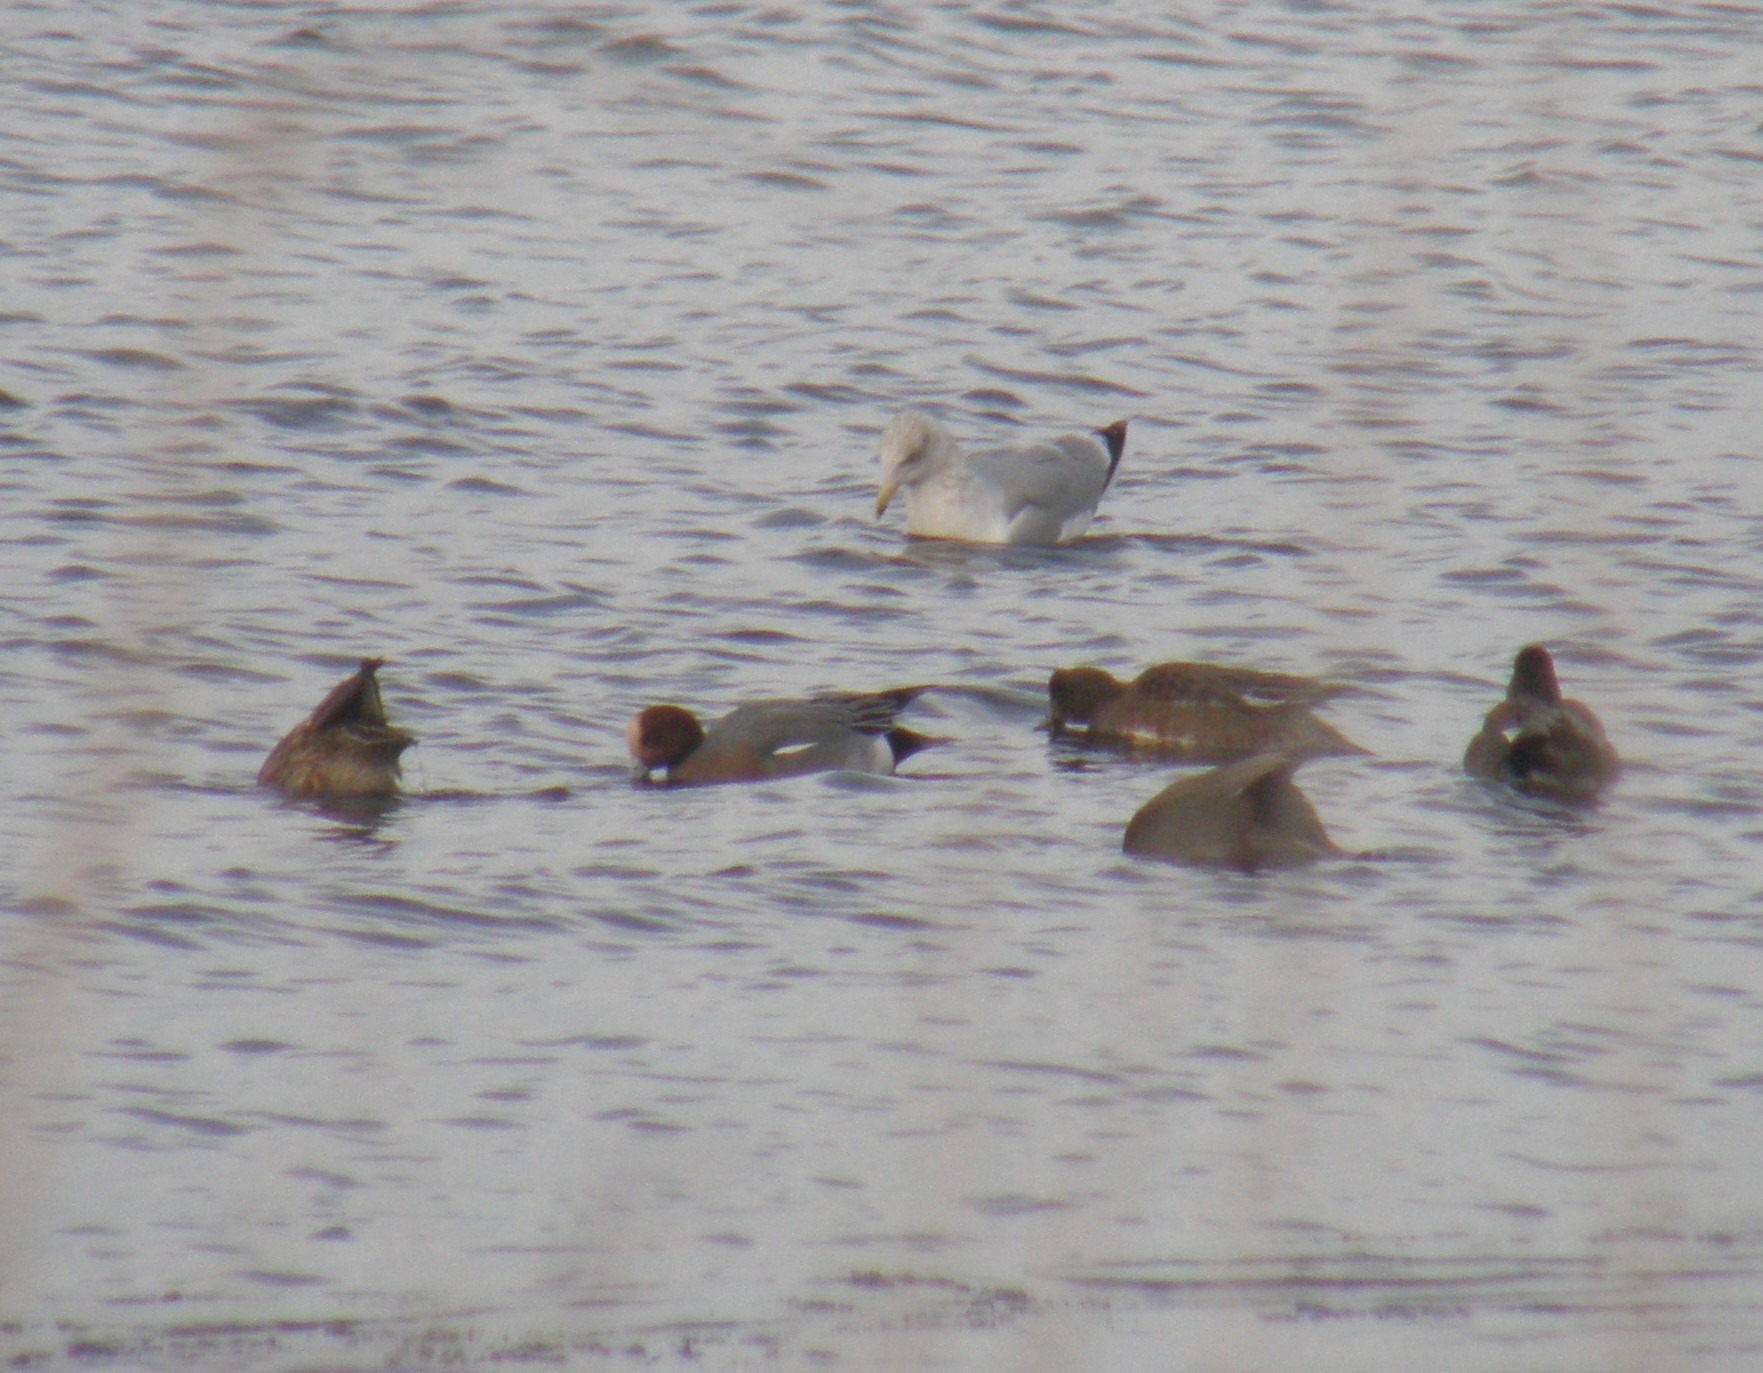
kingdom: Animalia
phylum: Chordata
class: Aves
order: Anseriformes
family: Anatidae
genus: Mareca
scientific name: Mareca penelope
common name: Pibeand
